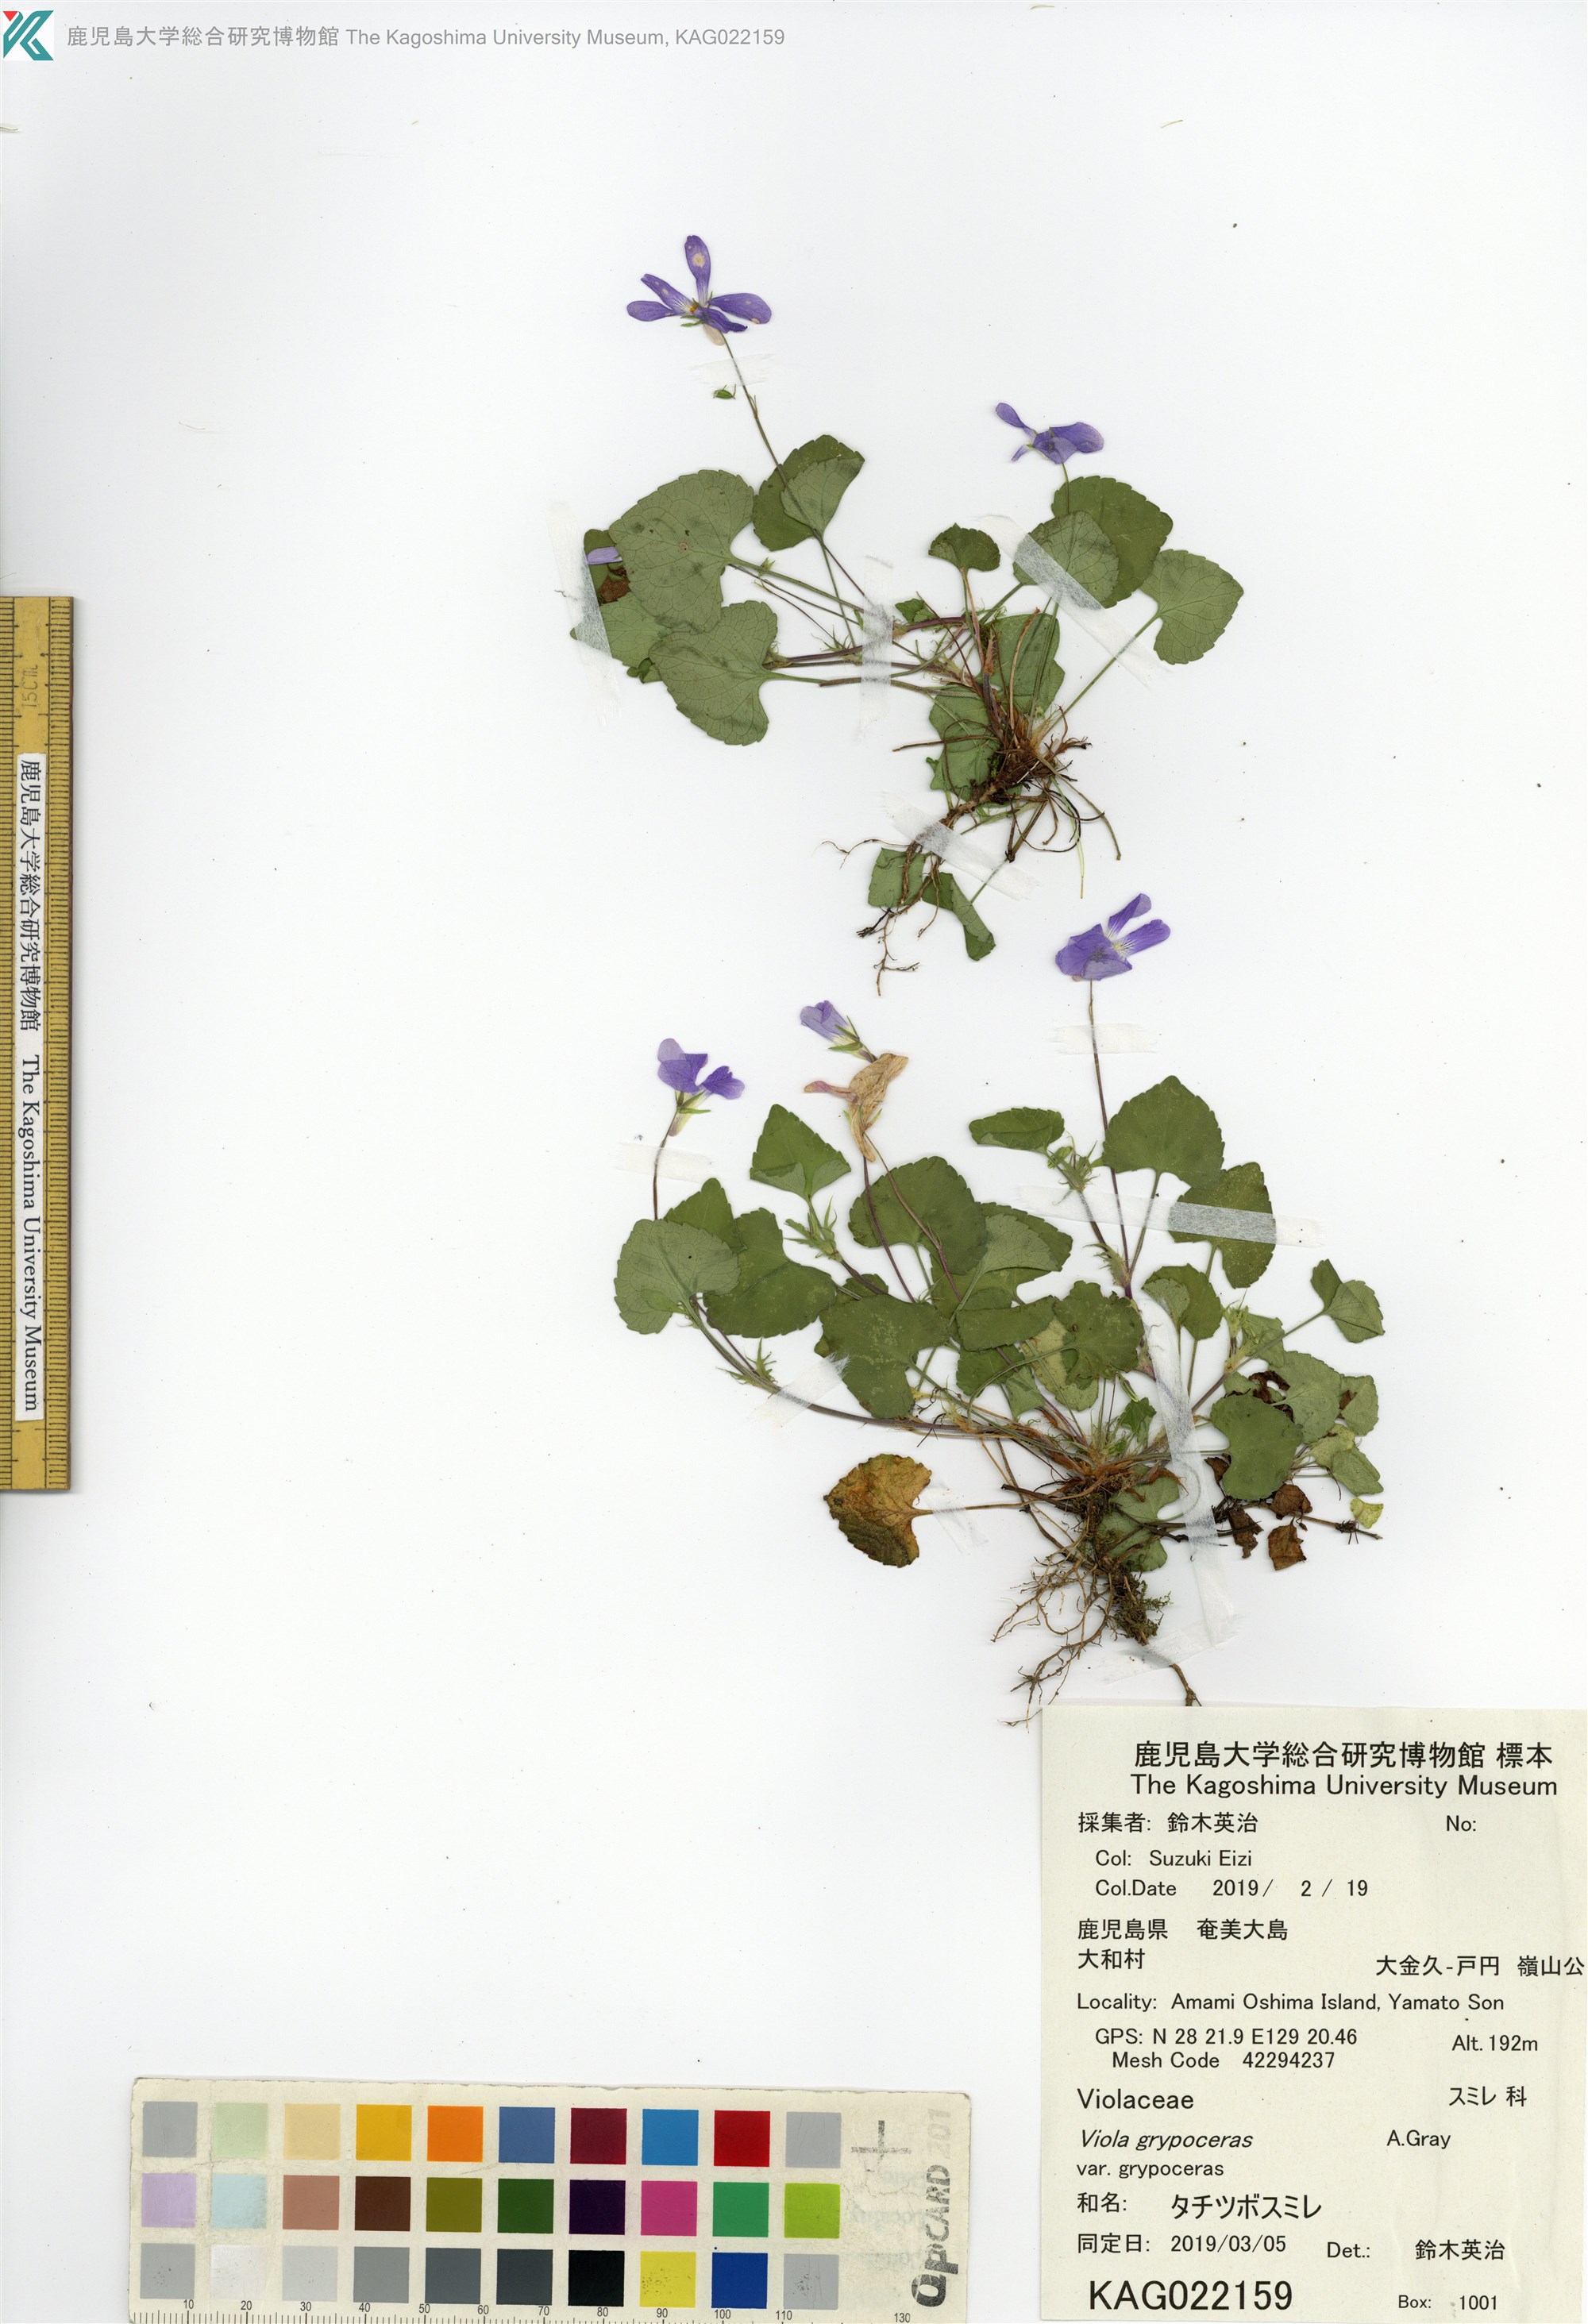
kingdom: Plantae
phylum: Tracheophyta
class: Magnoliopsida
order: Malpighiales
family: Violaceae
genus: Viola
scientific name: Viola grypoceras
